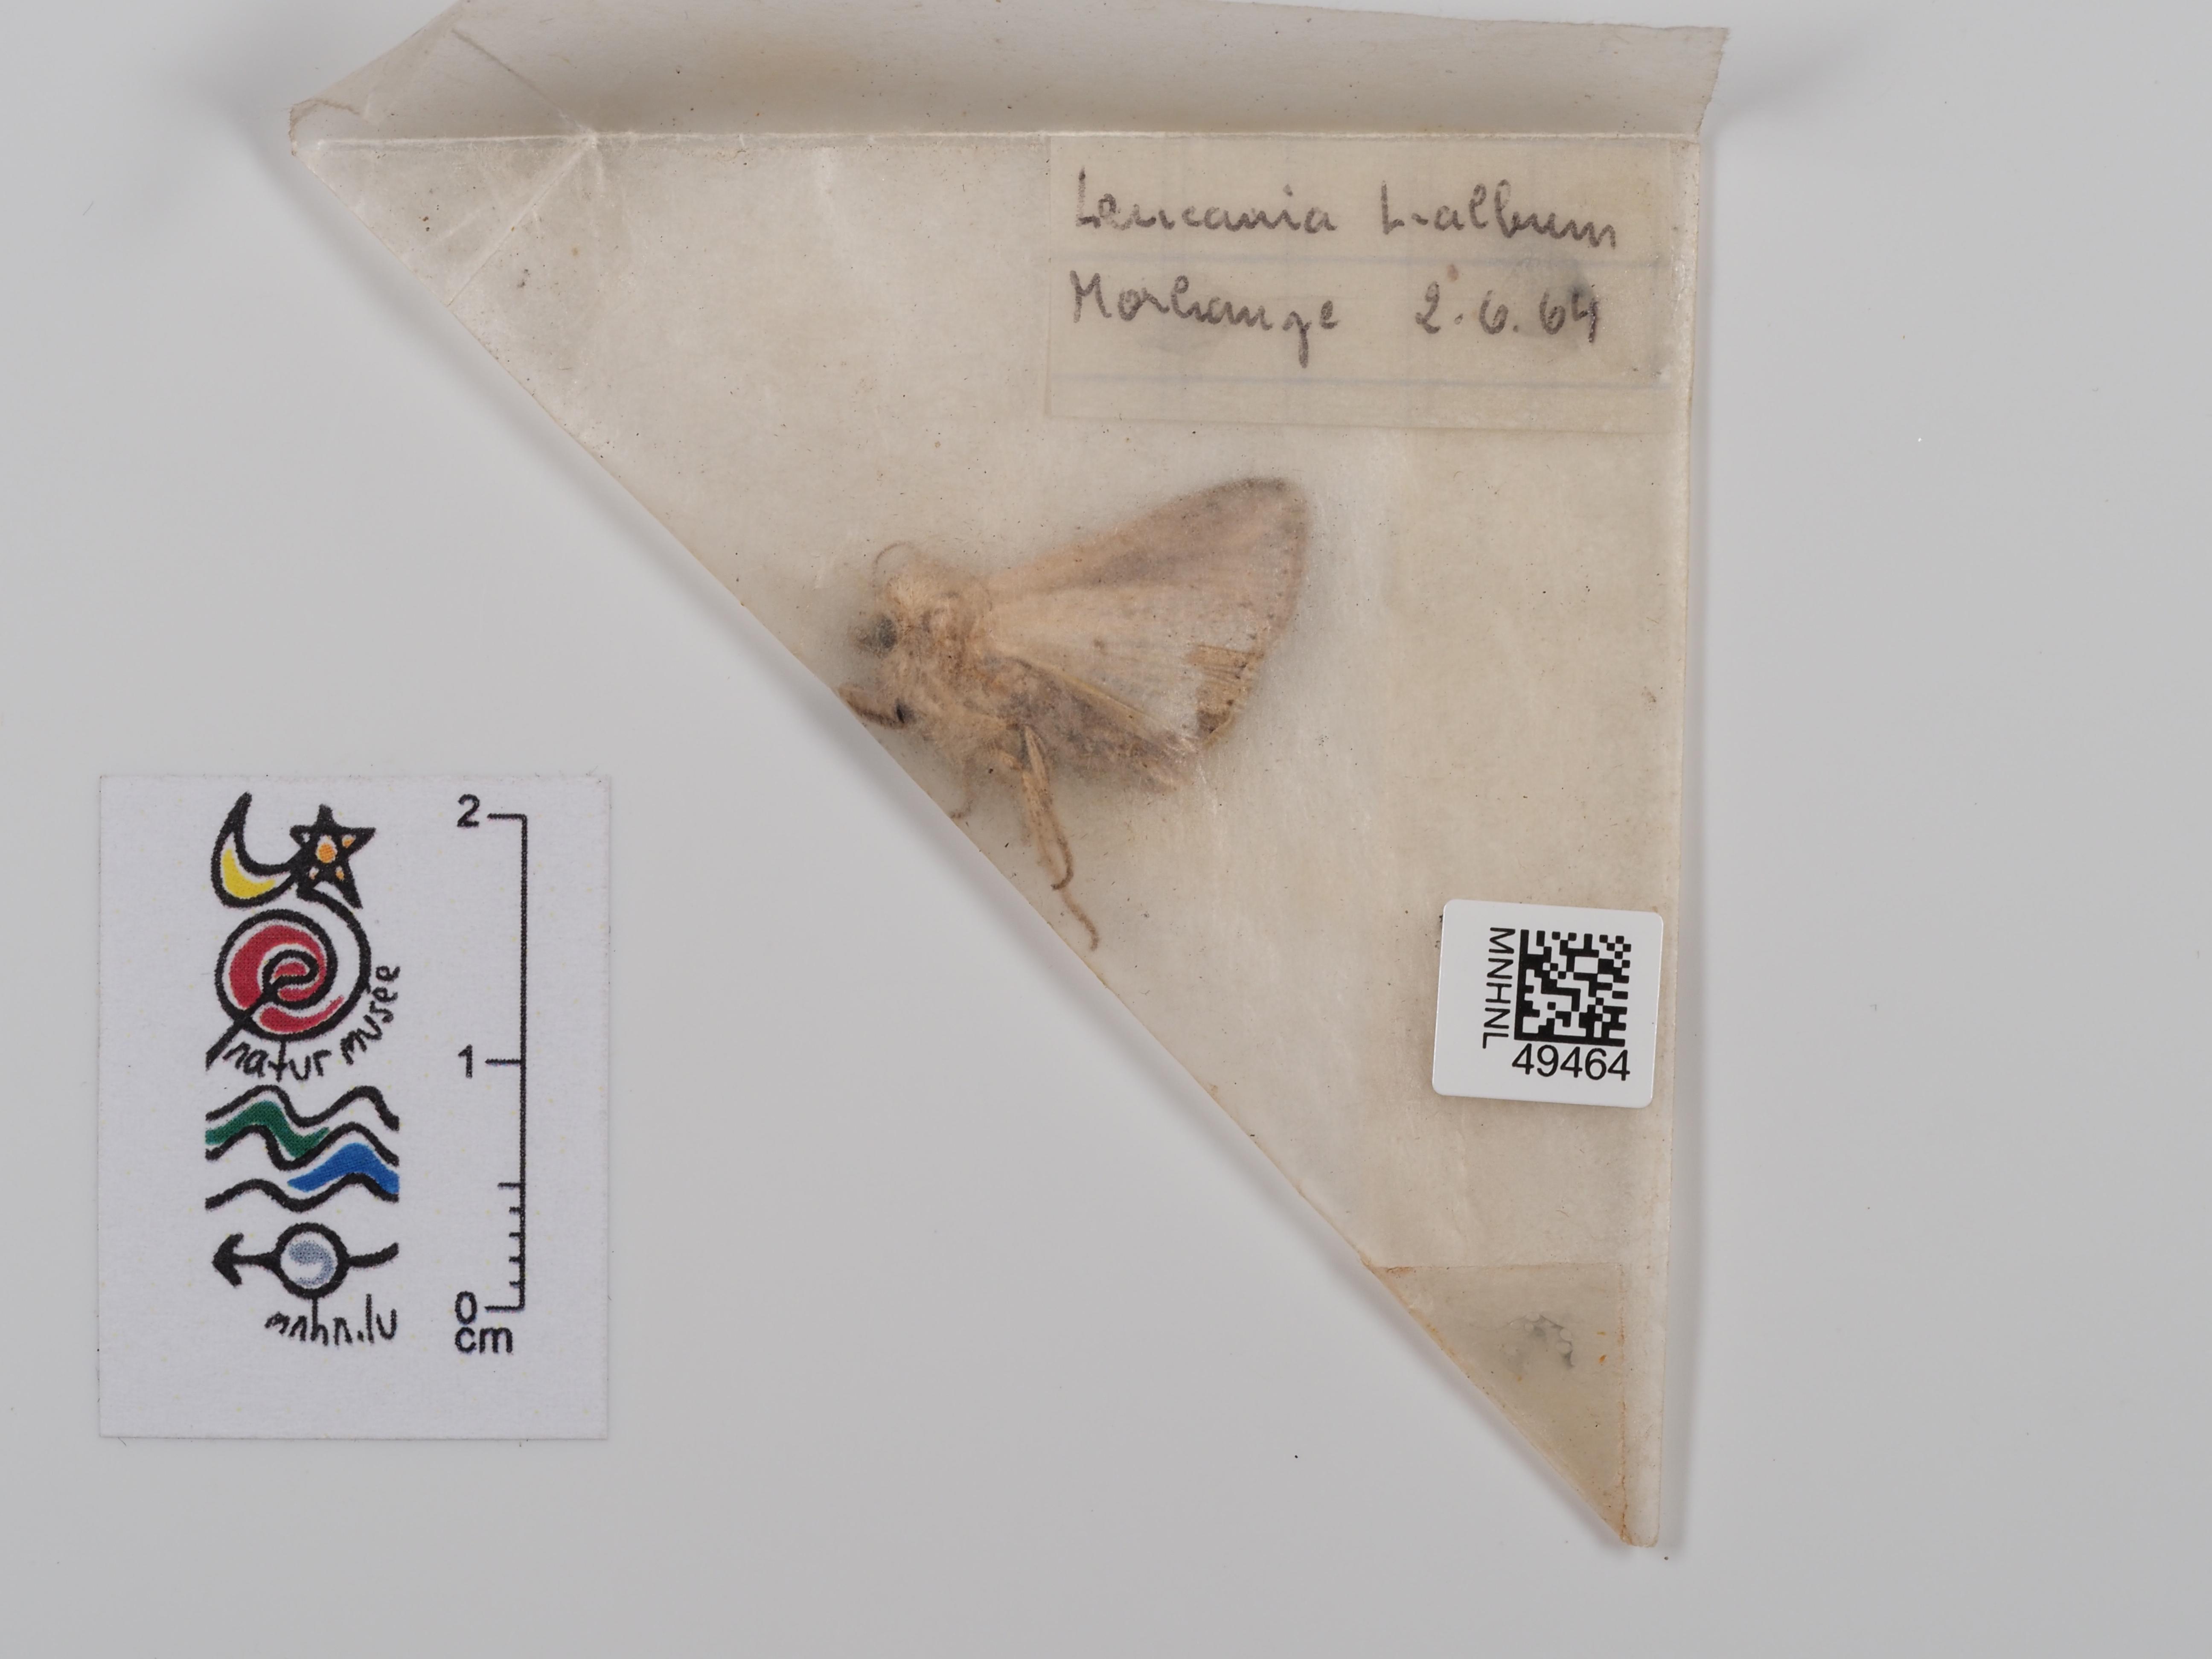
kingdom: Animalia
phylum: Arthropoda
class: Insecta
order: Lepidoptera
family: Noctuidae
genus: Mythimna
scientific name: Mythimna l-album
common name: L-album wainscot
